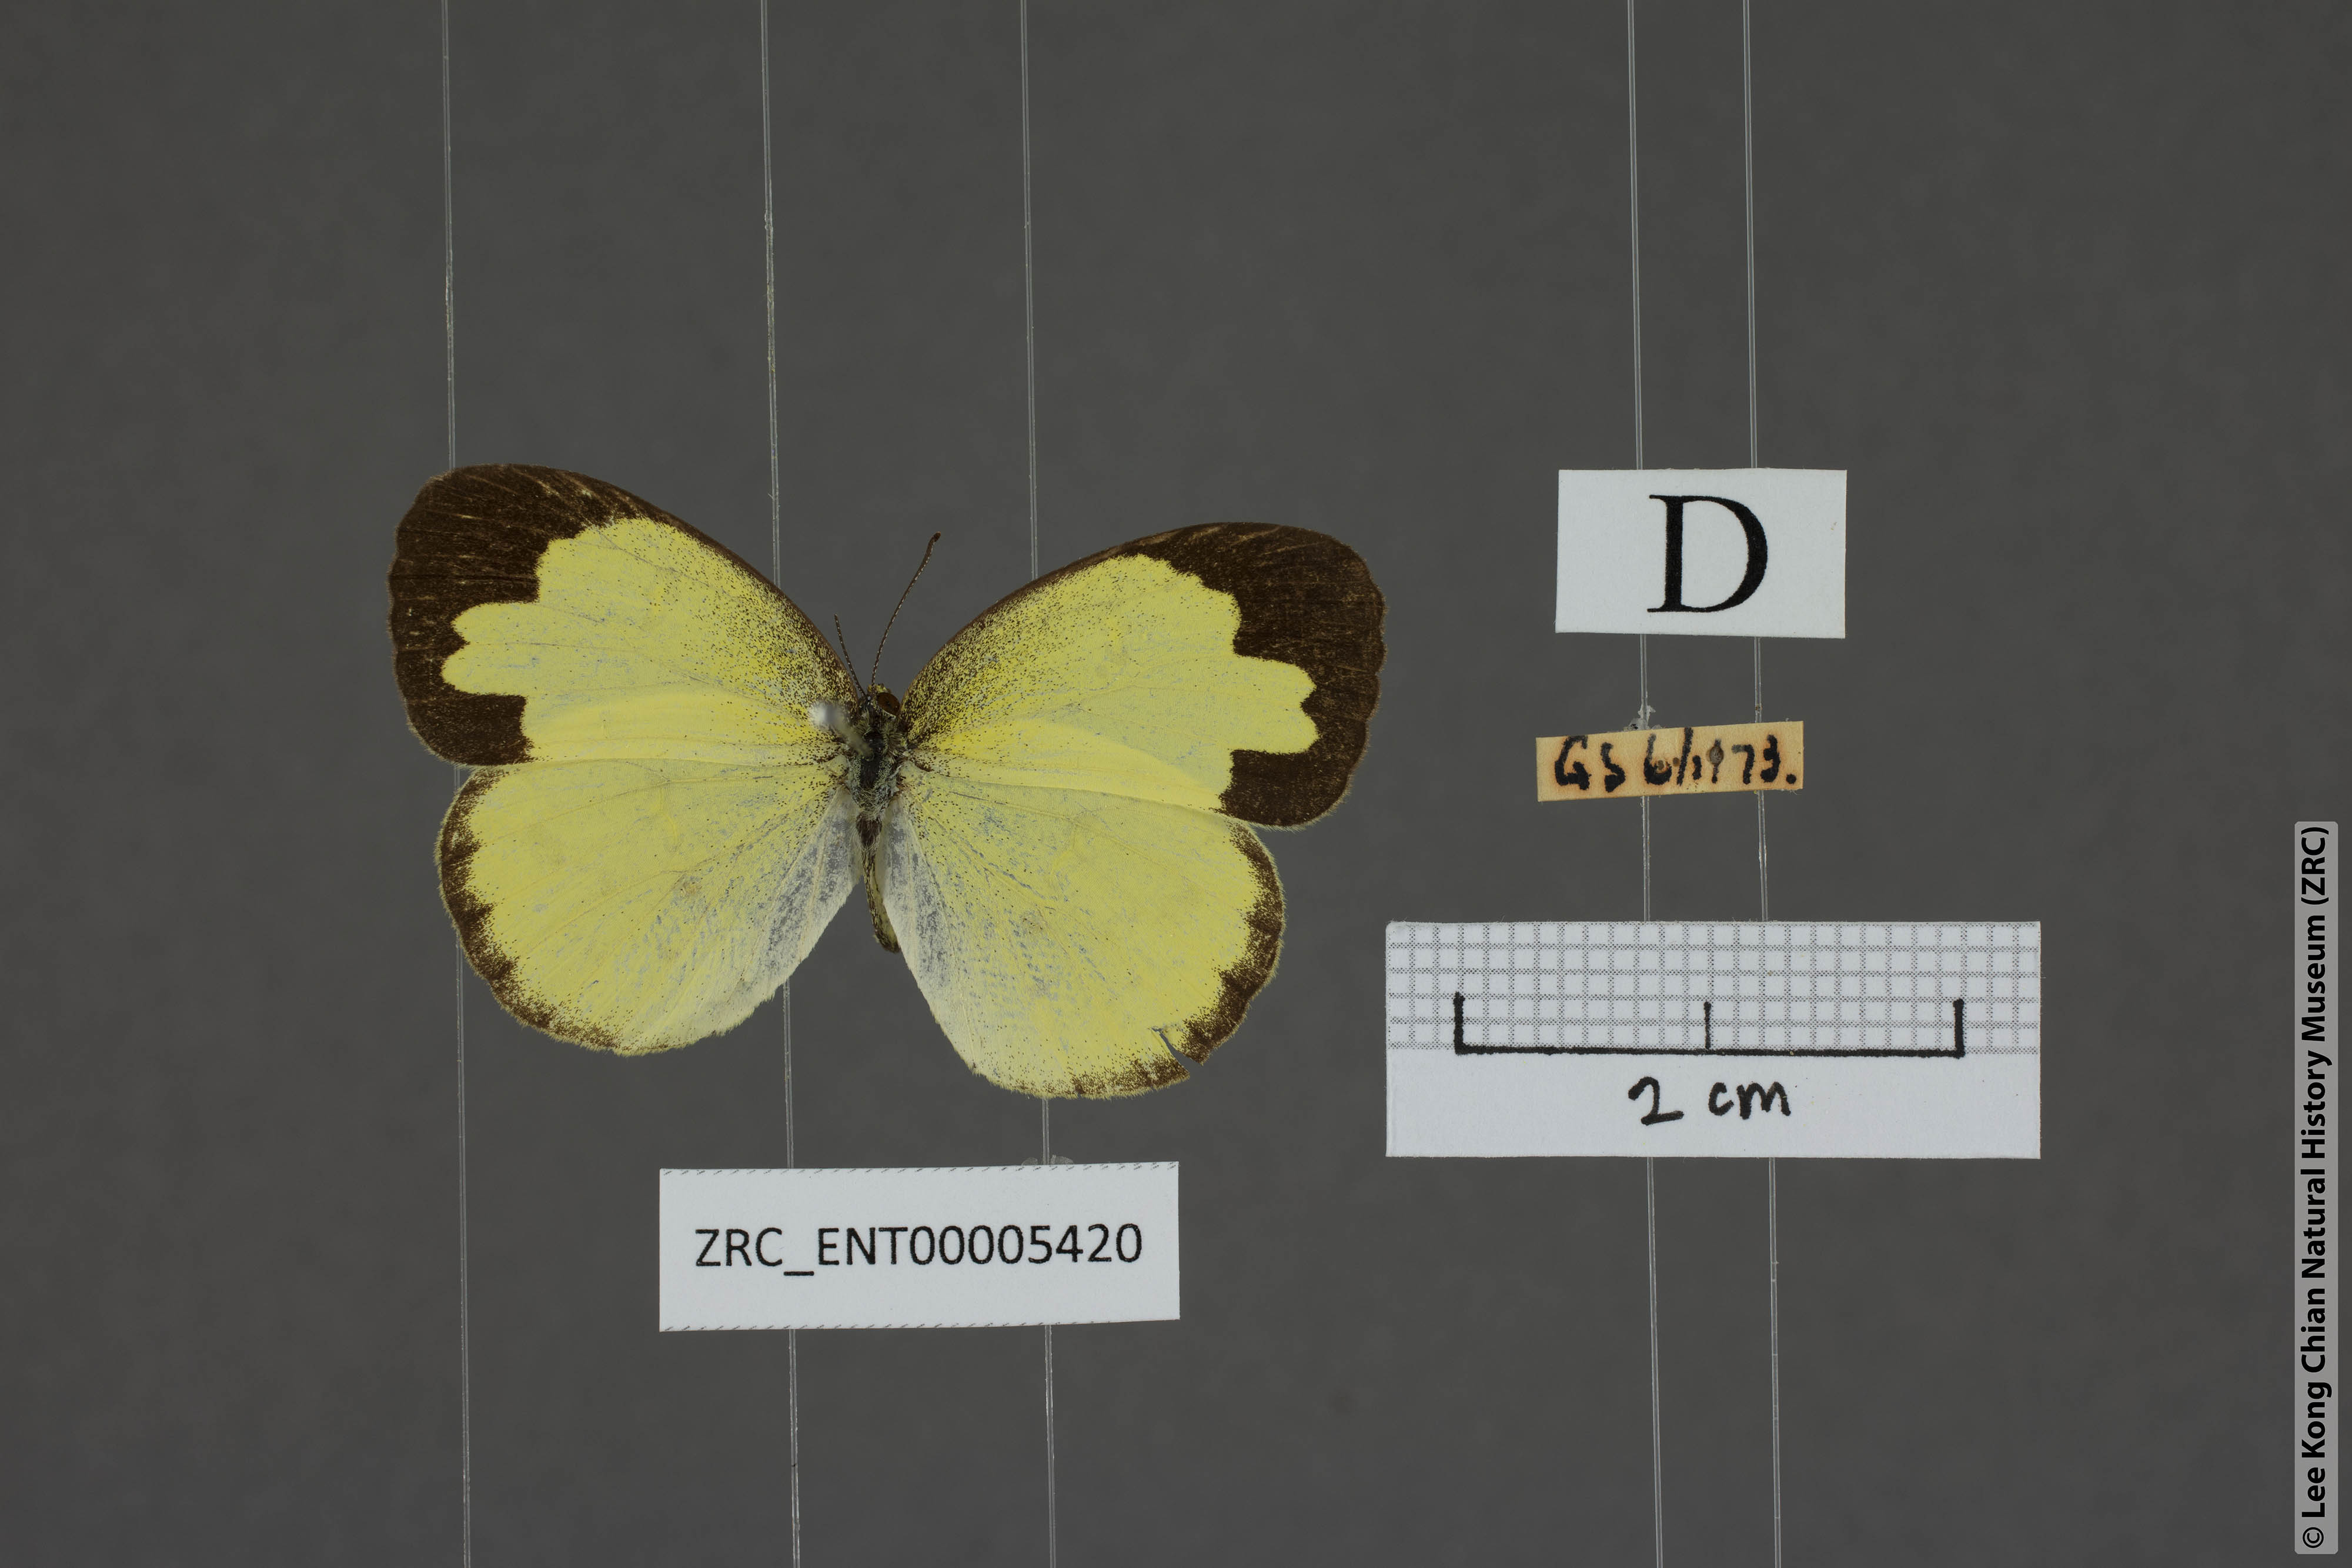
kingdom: Animalia
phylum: Arthropoda
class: Insecta
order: Lepidoptera
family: Pieridae
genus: Eurema
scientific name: Eurema andersoni
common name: One-spot yellow grass
